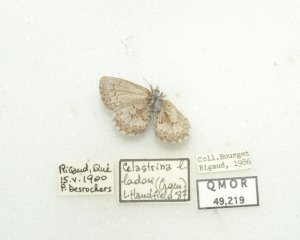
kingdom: Animalia
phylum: Arthropoda
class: Insecta
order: Lepidoptera
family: Lycaenidae
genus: Celastrina
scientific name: Celastrina lucia
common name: Northern Spring Azure
